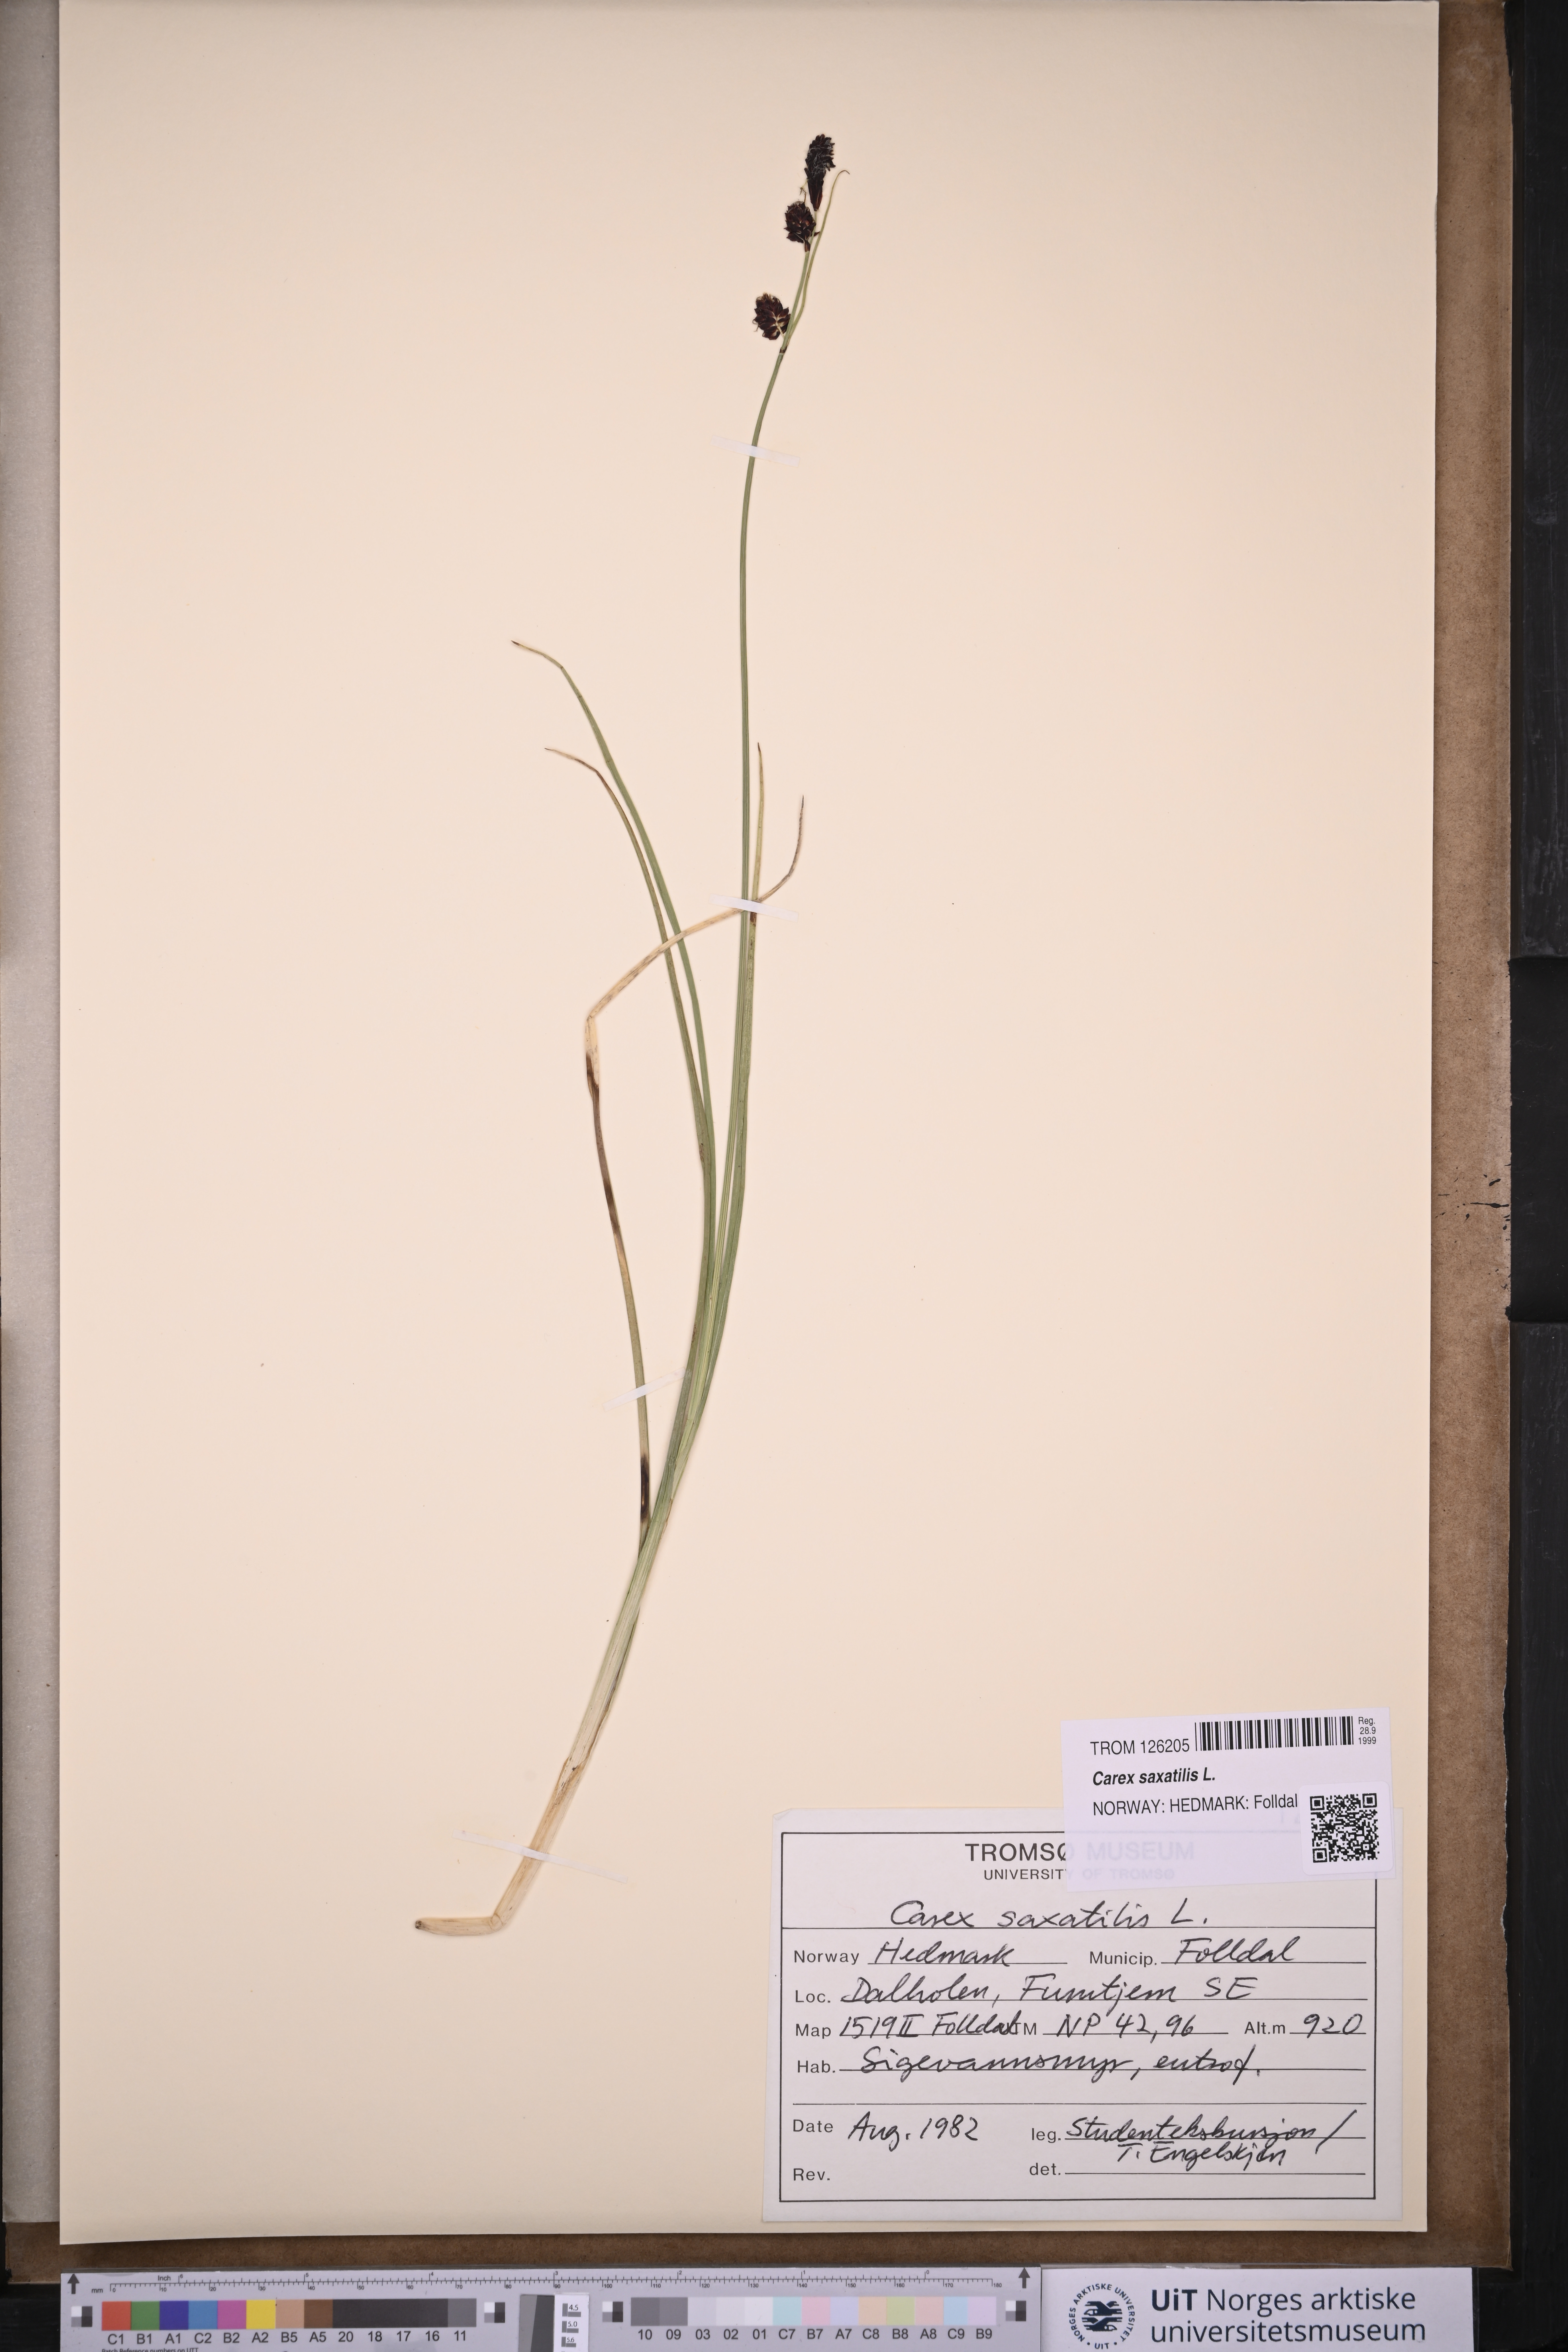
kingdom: Plantae
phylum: Tracheophyta
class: Liliopsida
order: Poales
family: Cyperaceae
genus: Carex
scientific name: Carex saxatilis
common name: Russet sedge
